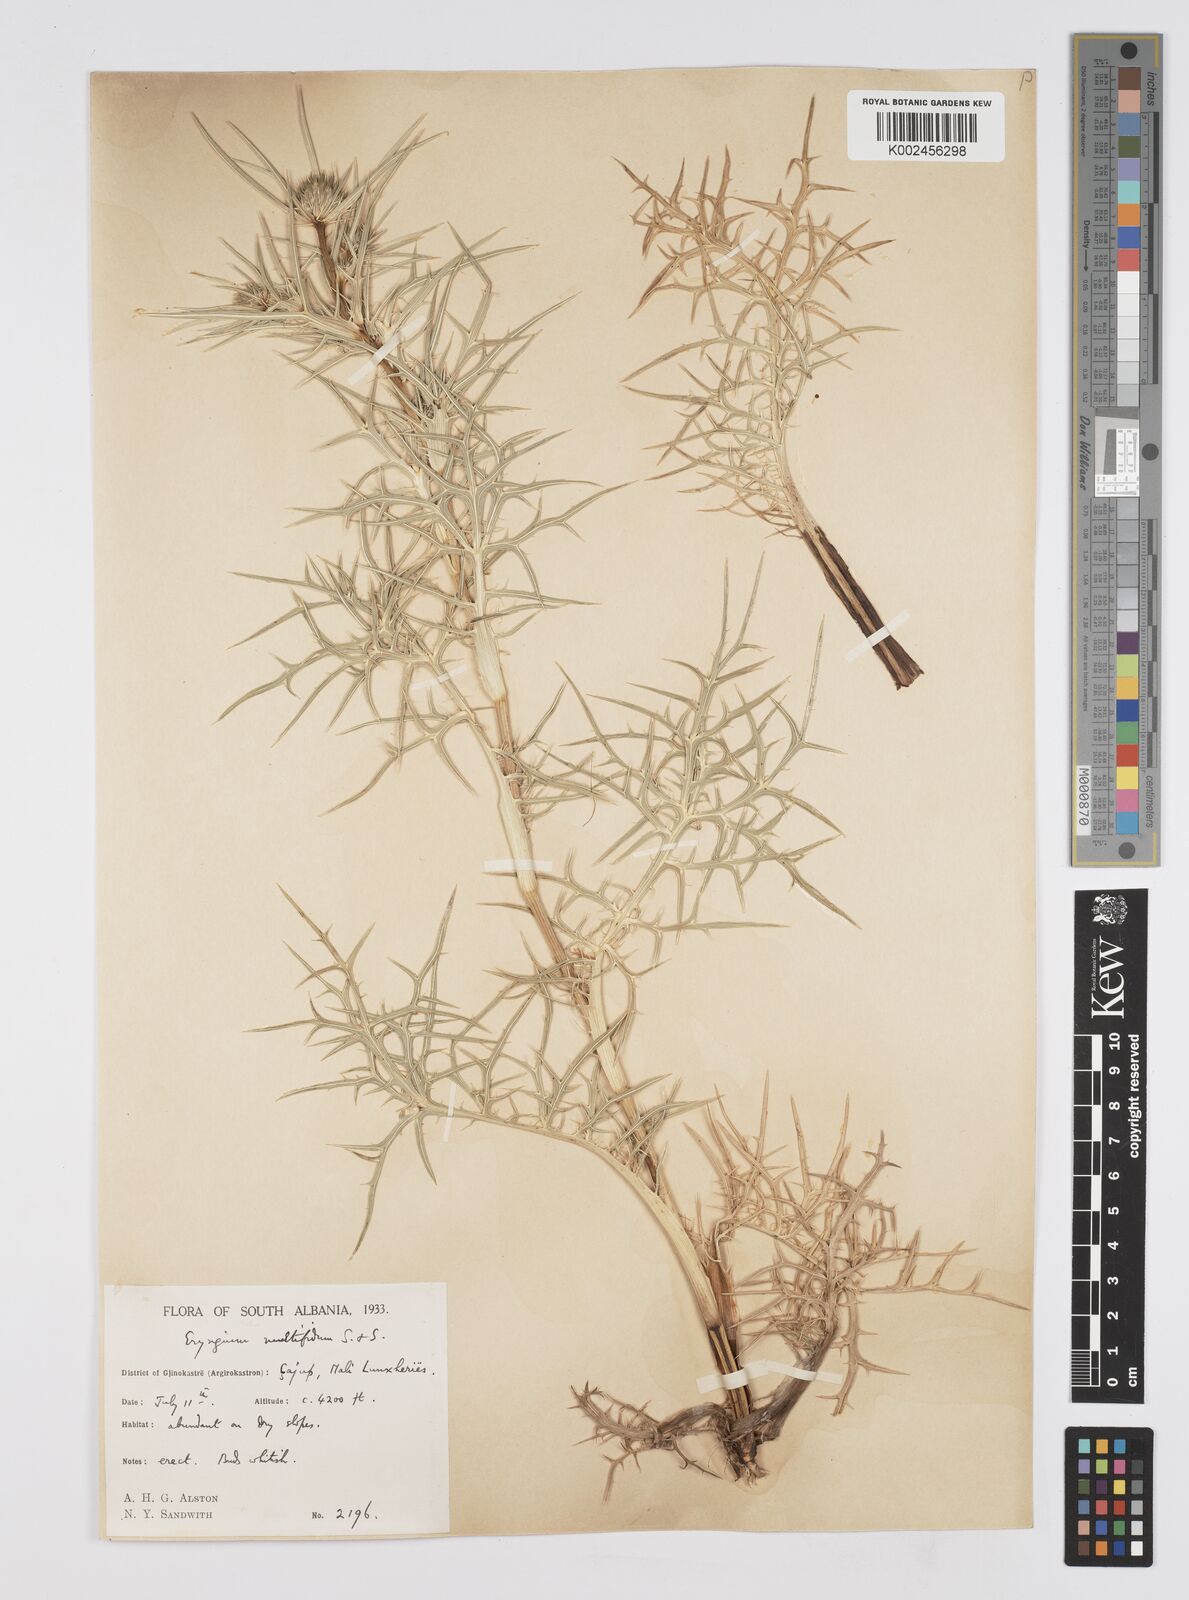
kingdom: Plantae
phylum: Tracheophyta
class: Magnoliopsida
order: Apiales
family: Apiaceae
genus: Eryngium
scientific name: Eryngium amethystinum
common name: Amethyst eryngo
